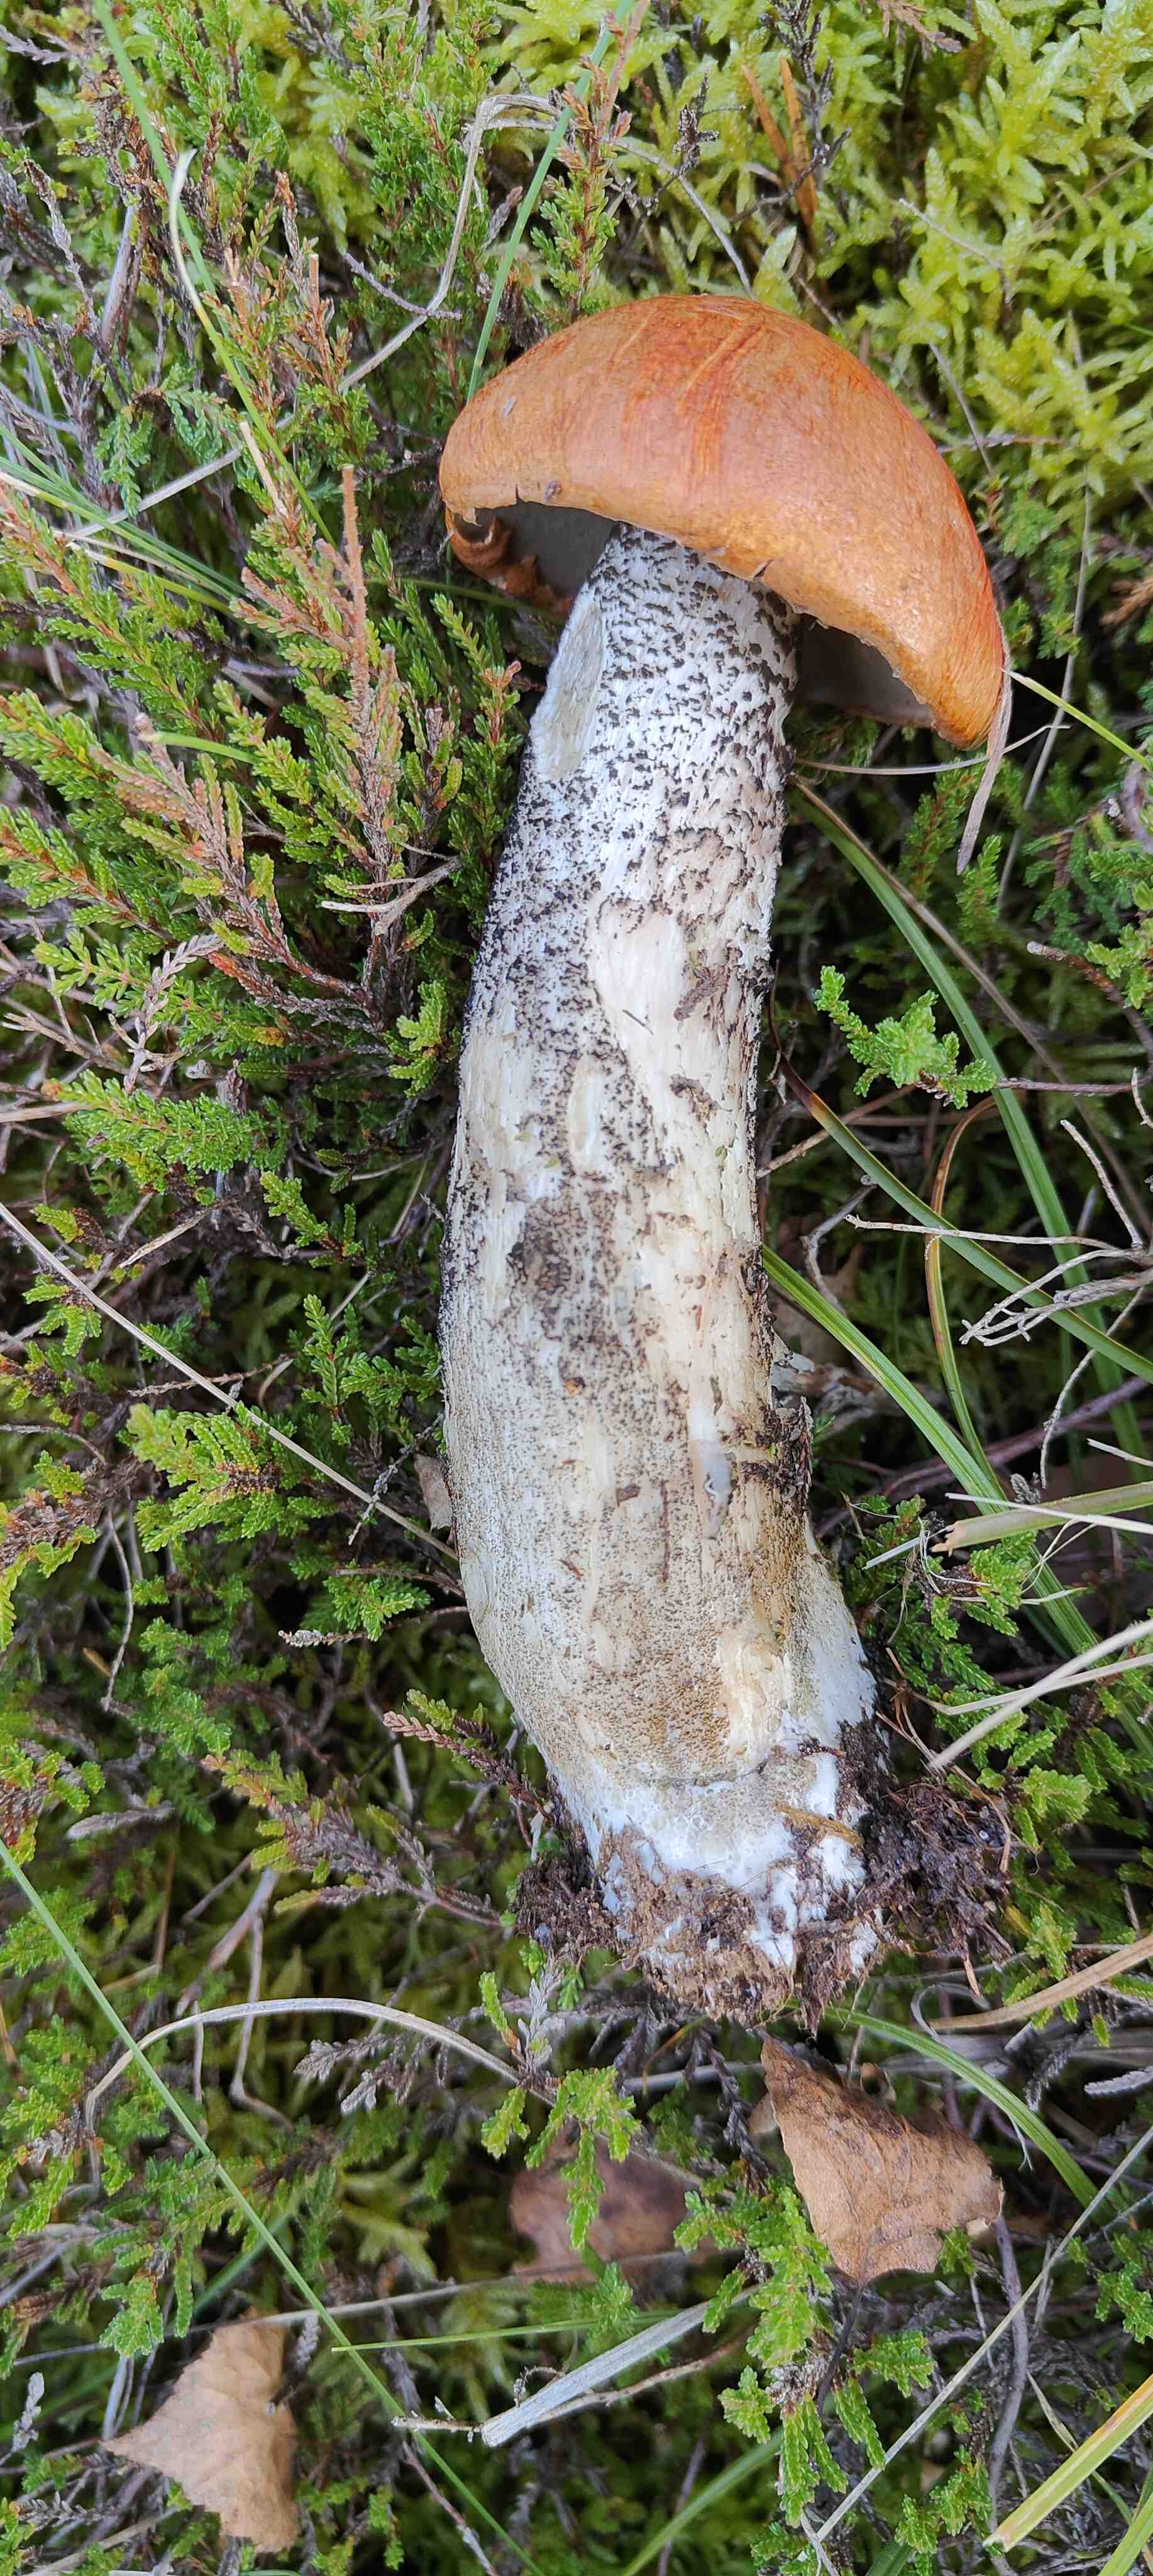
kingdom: Fungi
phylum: Basidiomycota
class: Agaricomycetes
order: Boletales
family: Boletaceae
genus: Leccinum
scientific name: Leccinum versipelle
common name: orange skælrørhat
